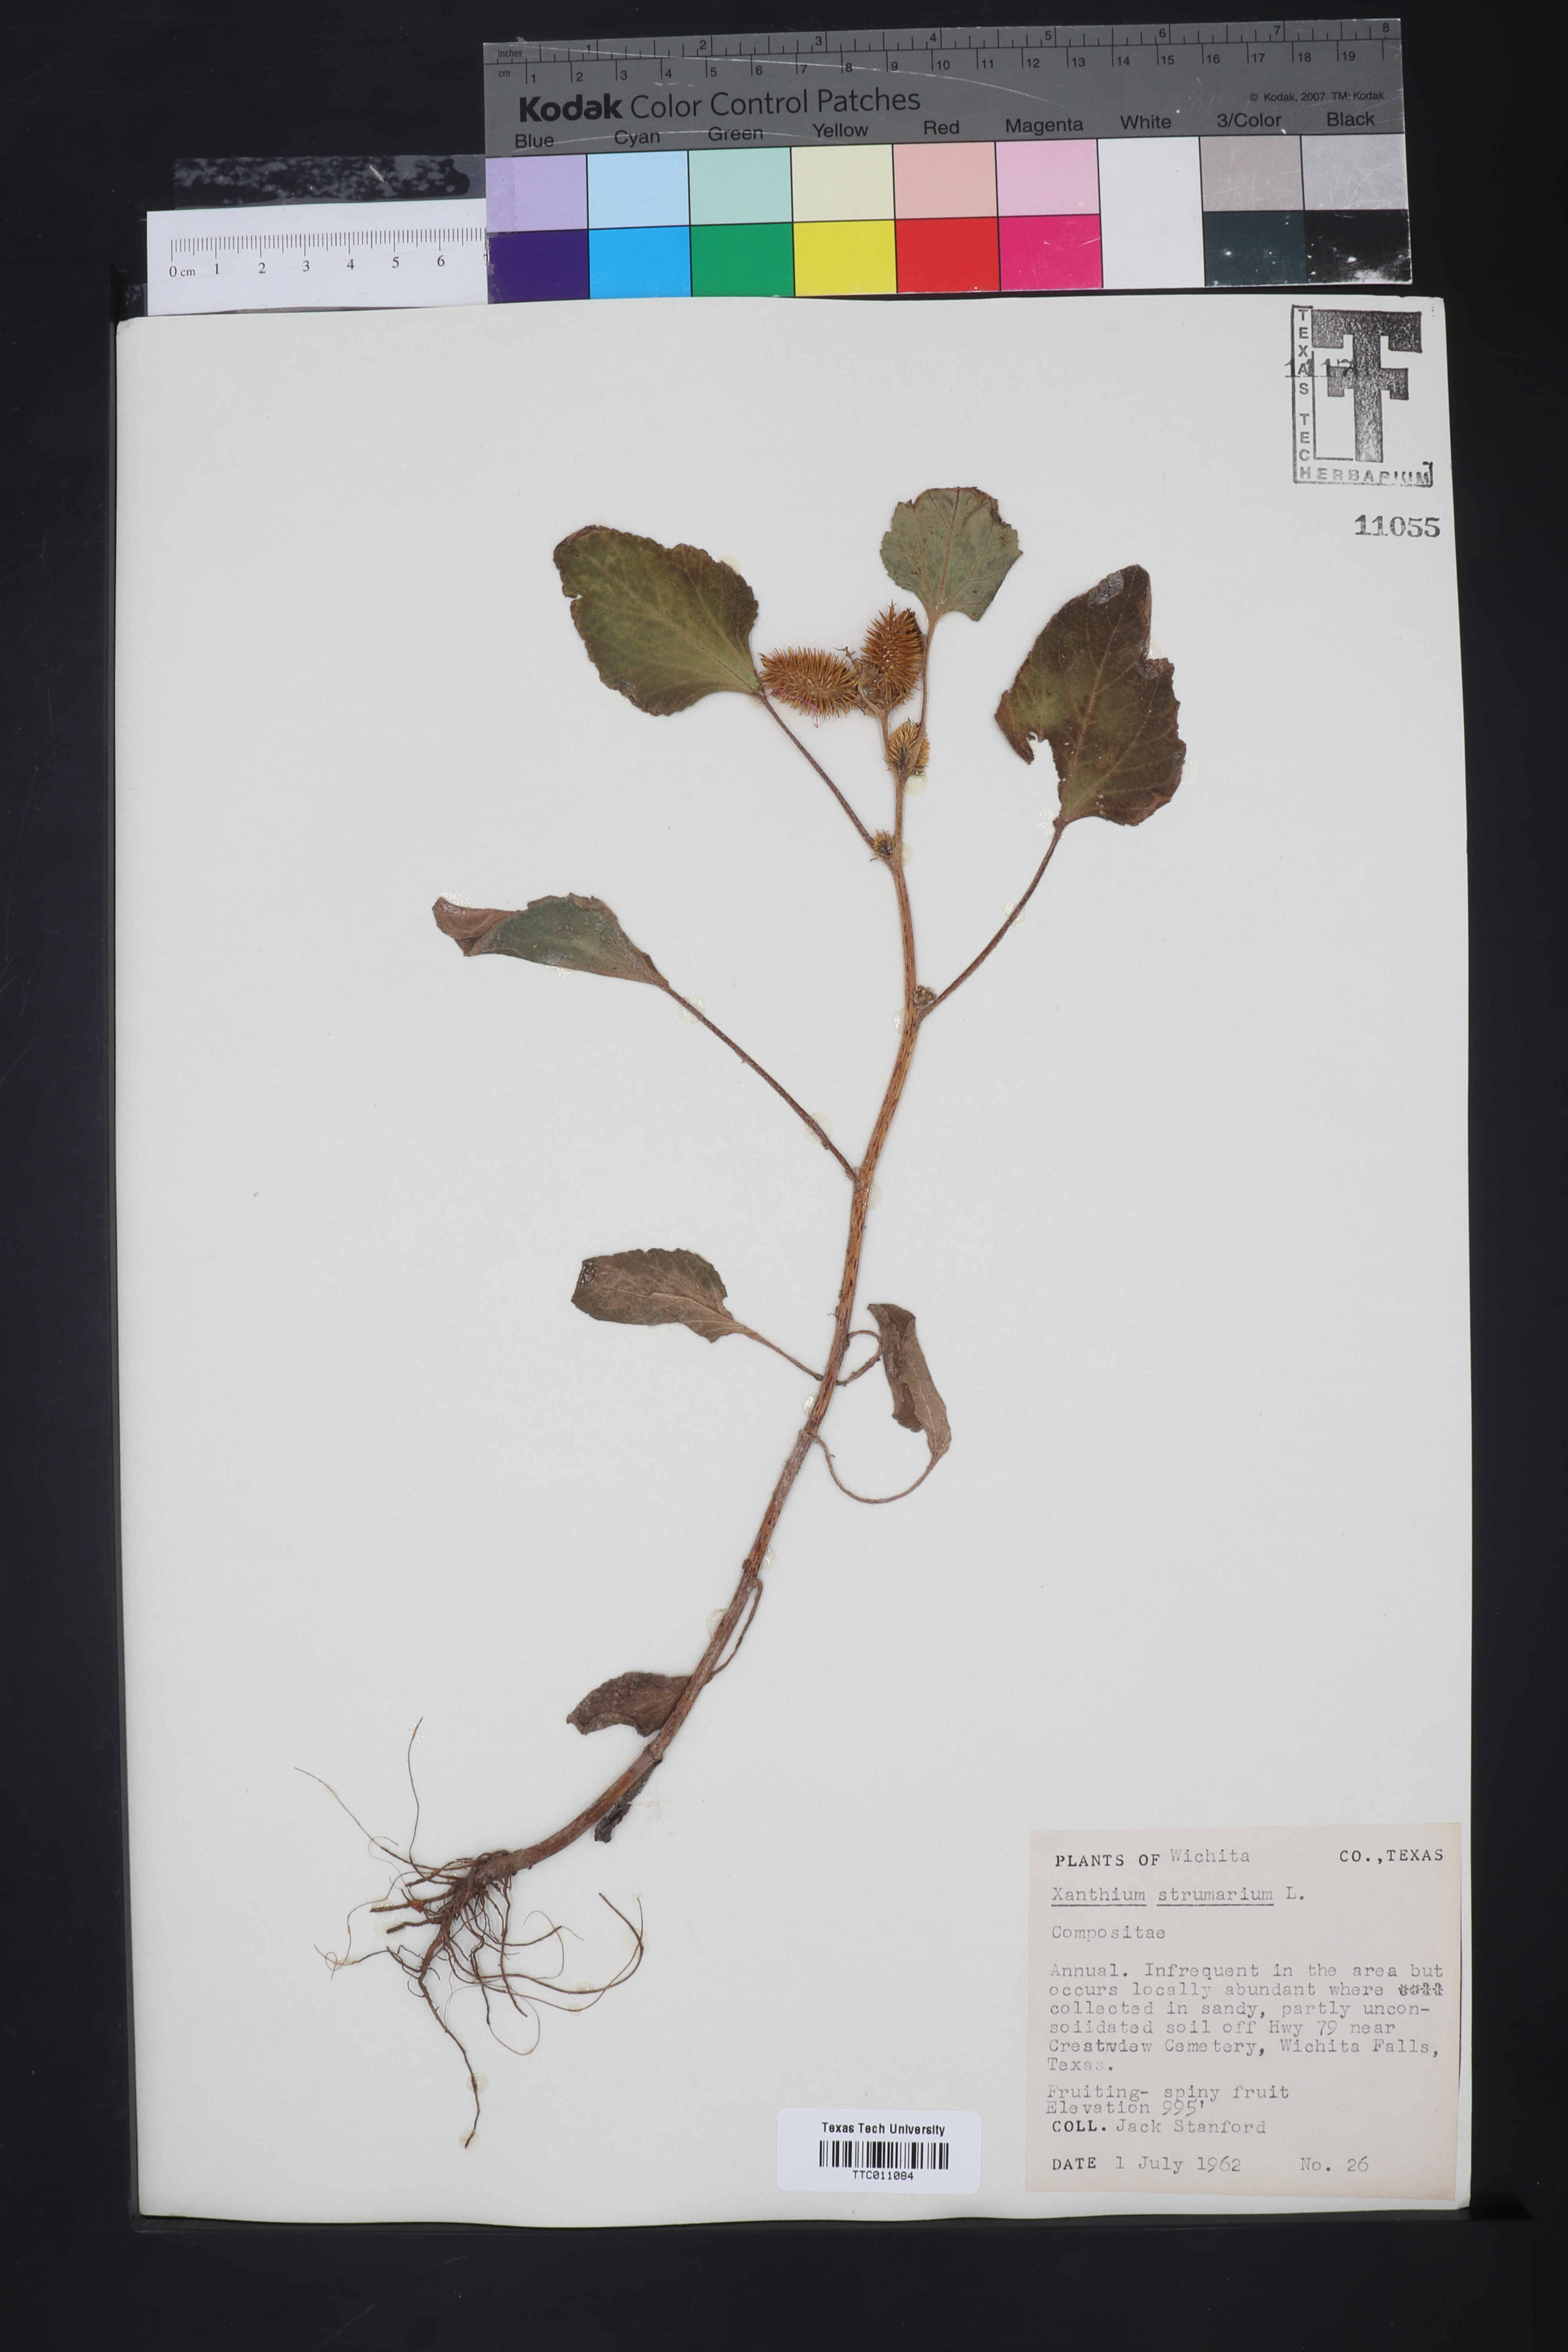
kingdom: Plantae
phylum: Tracheophyta
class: Magnoliopsida
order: Asterales
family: Asteraceae
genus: Xanthium
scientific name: Xanthium strumarium
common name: Rough cocklebur
